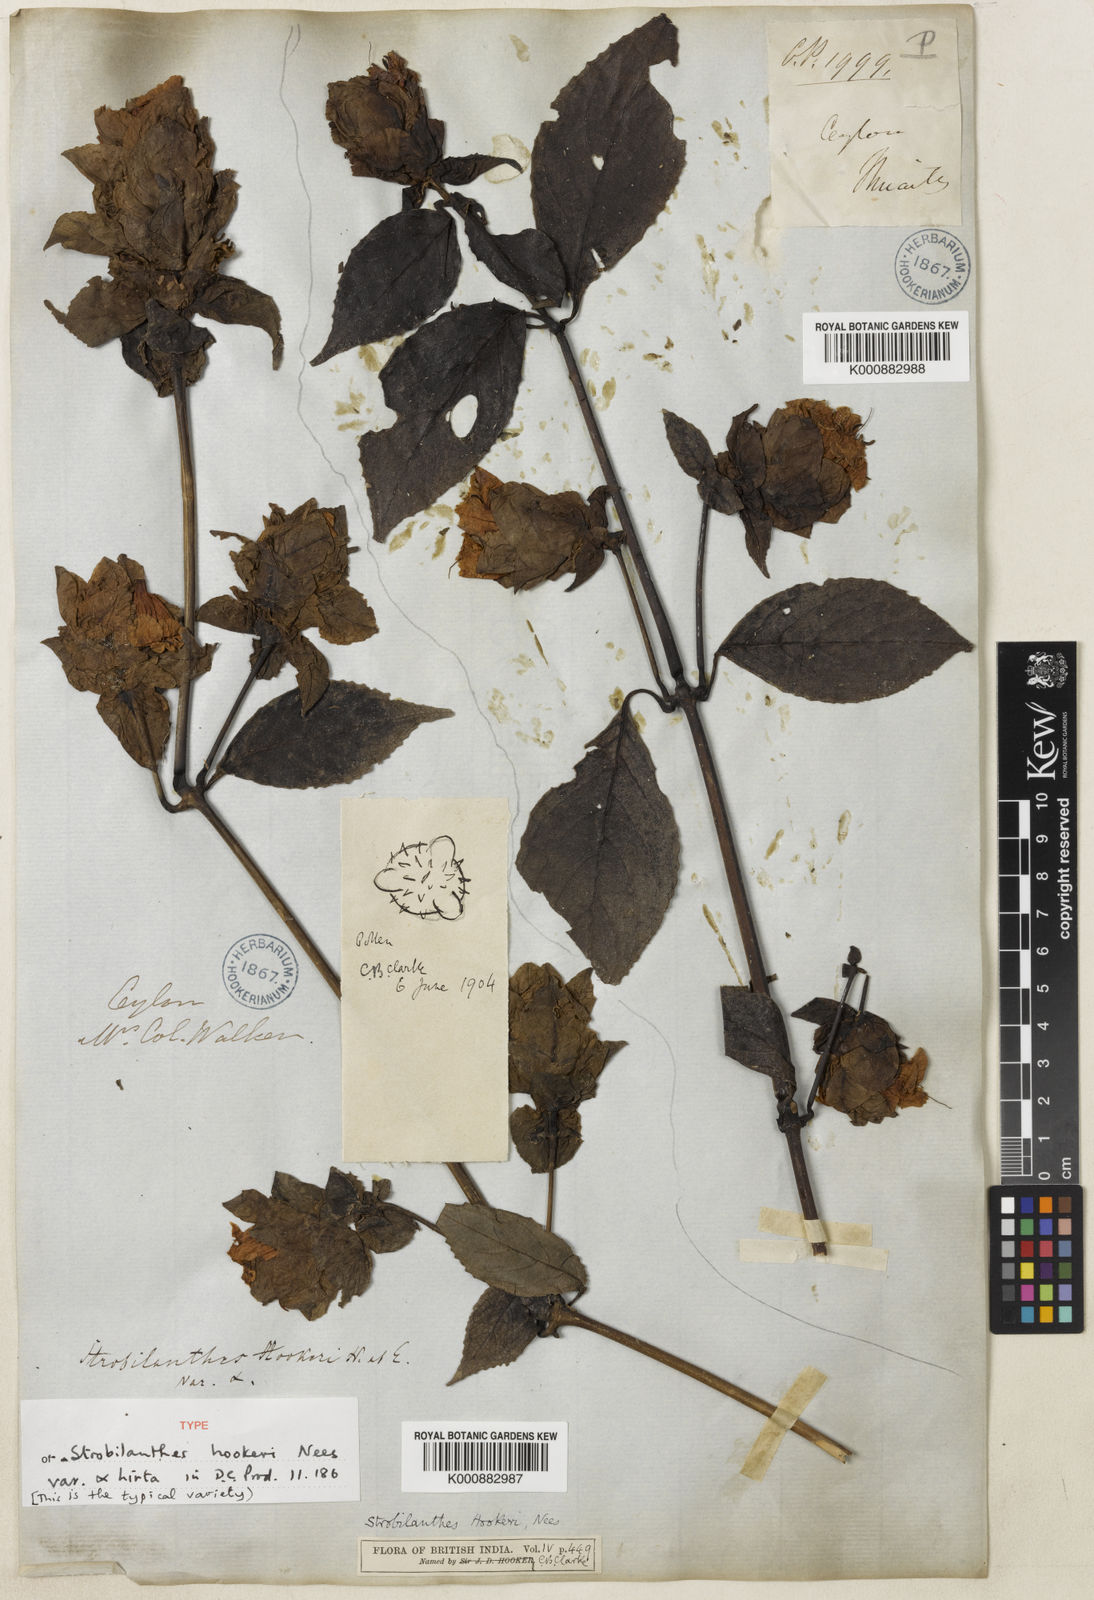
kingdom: Plantae
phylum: Tracheophyta
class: Magnoliopsida
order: Lamiales
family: Acanthaceae
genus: Strobilanthes
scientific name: Strobilanthes hookeri
